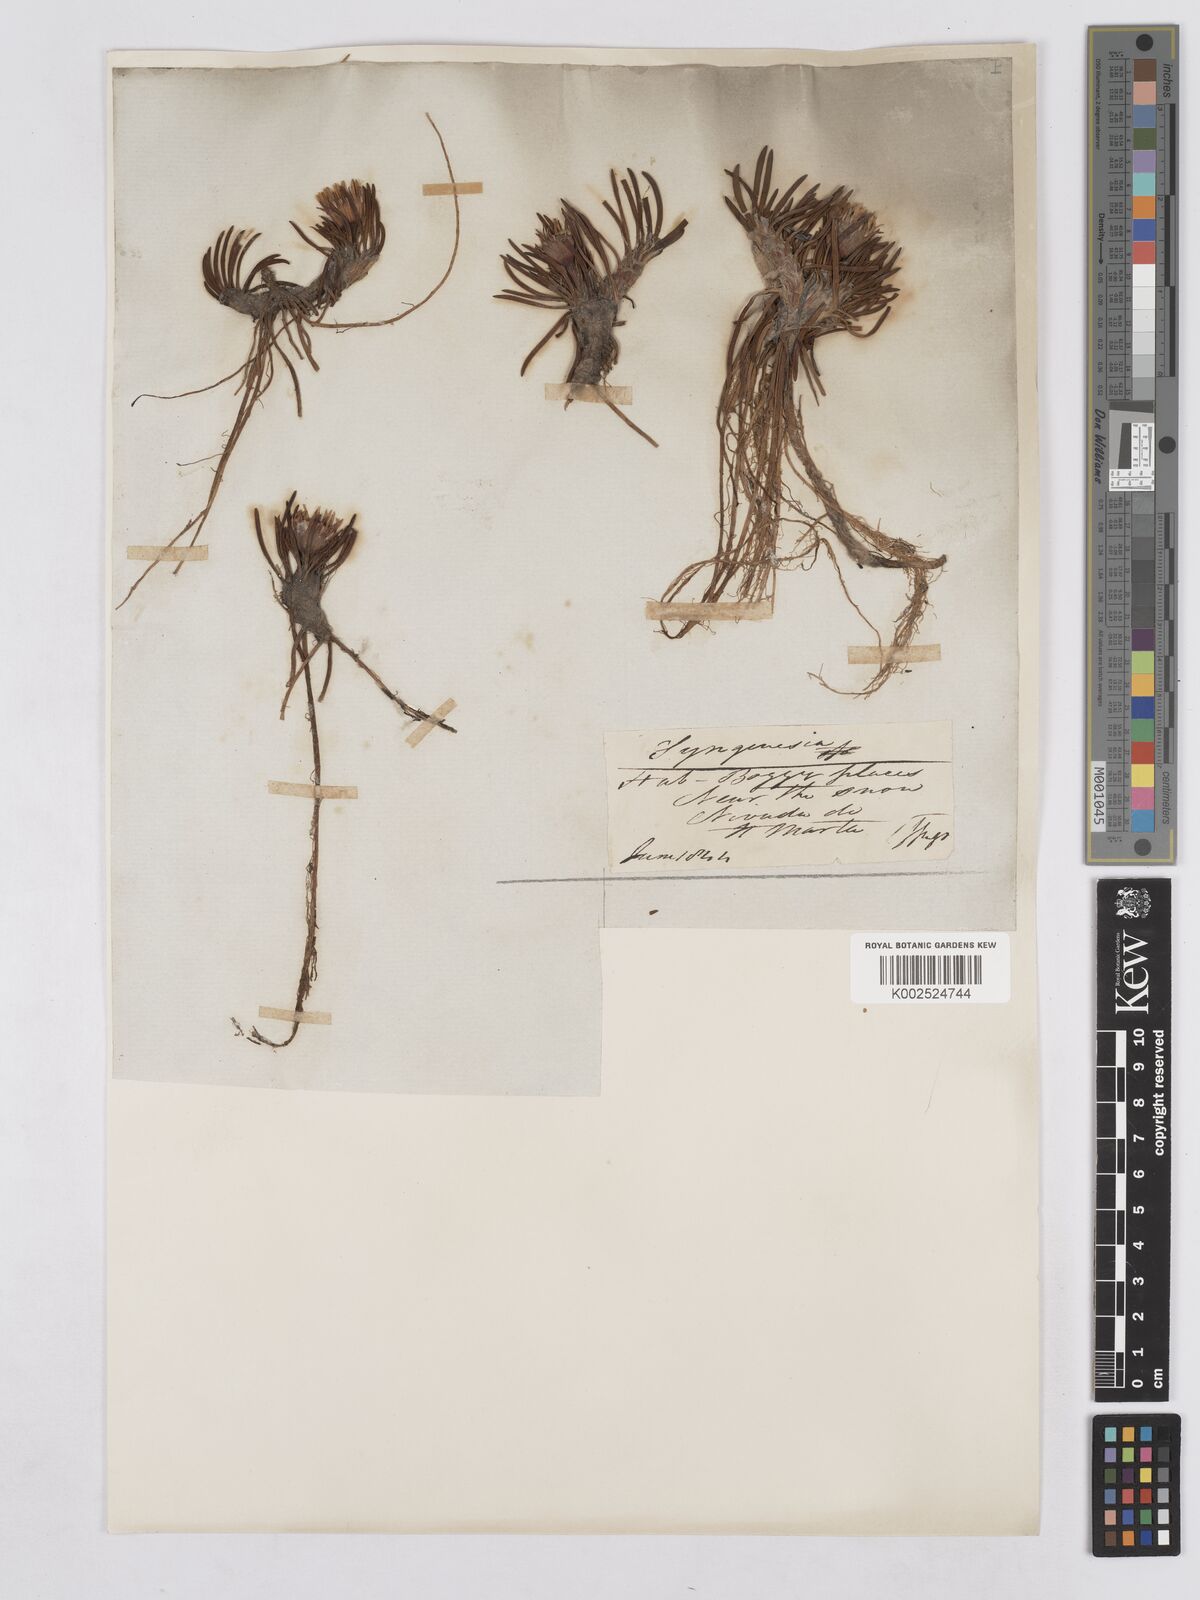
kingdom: Plantae
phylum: Tracheophyta
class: Magnoliopsida
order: Asterales
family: Asteraceae
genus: Rockhausenia
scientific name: Rockhausenia pumila
